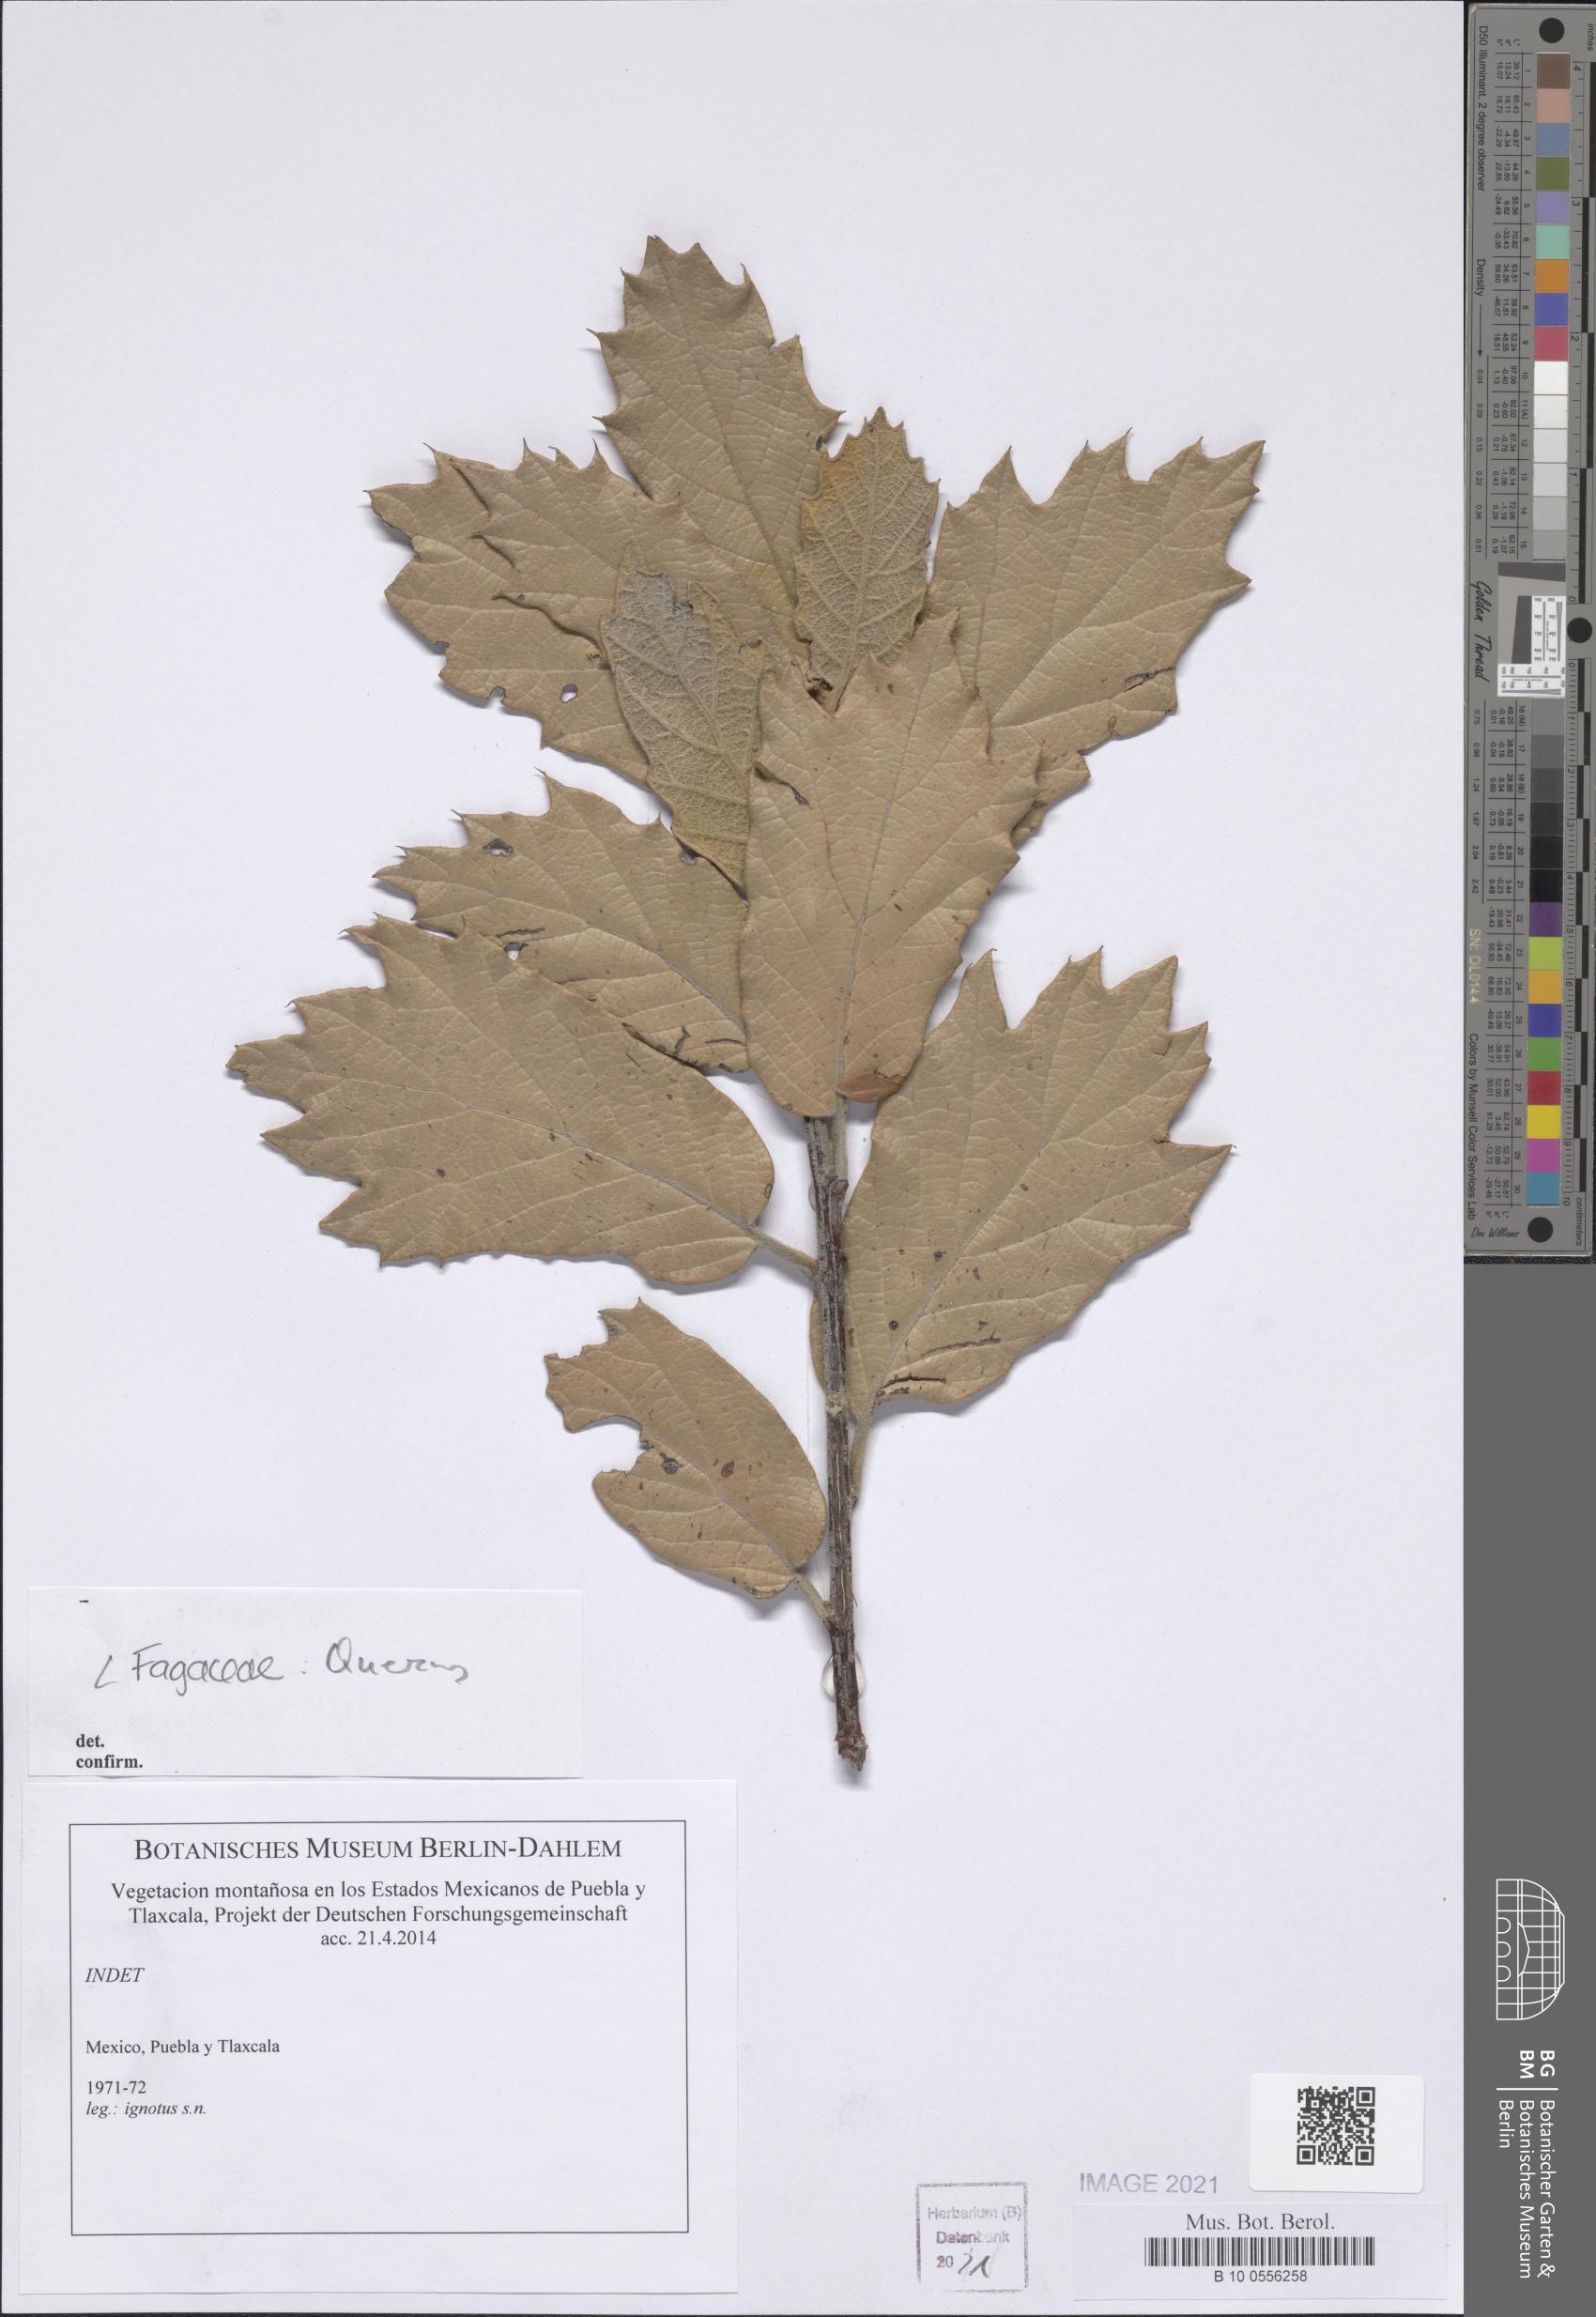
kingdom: Plantae
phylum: Tracheophyta
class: Magnoliopsida
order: Fagales
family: Fagaceae
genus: Quercus
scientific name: Quercus
